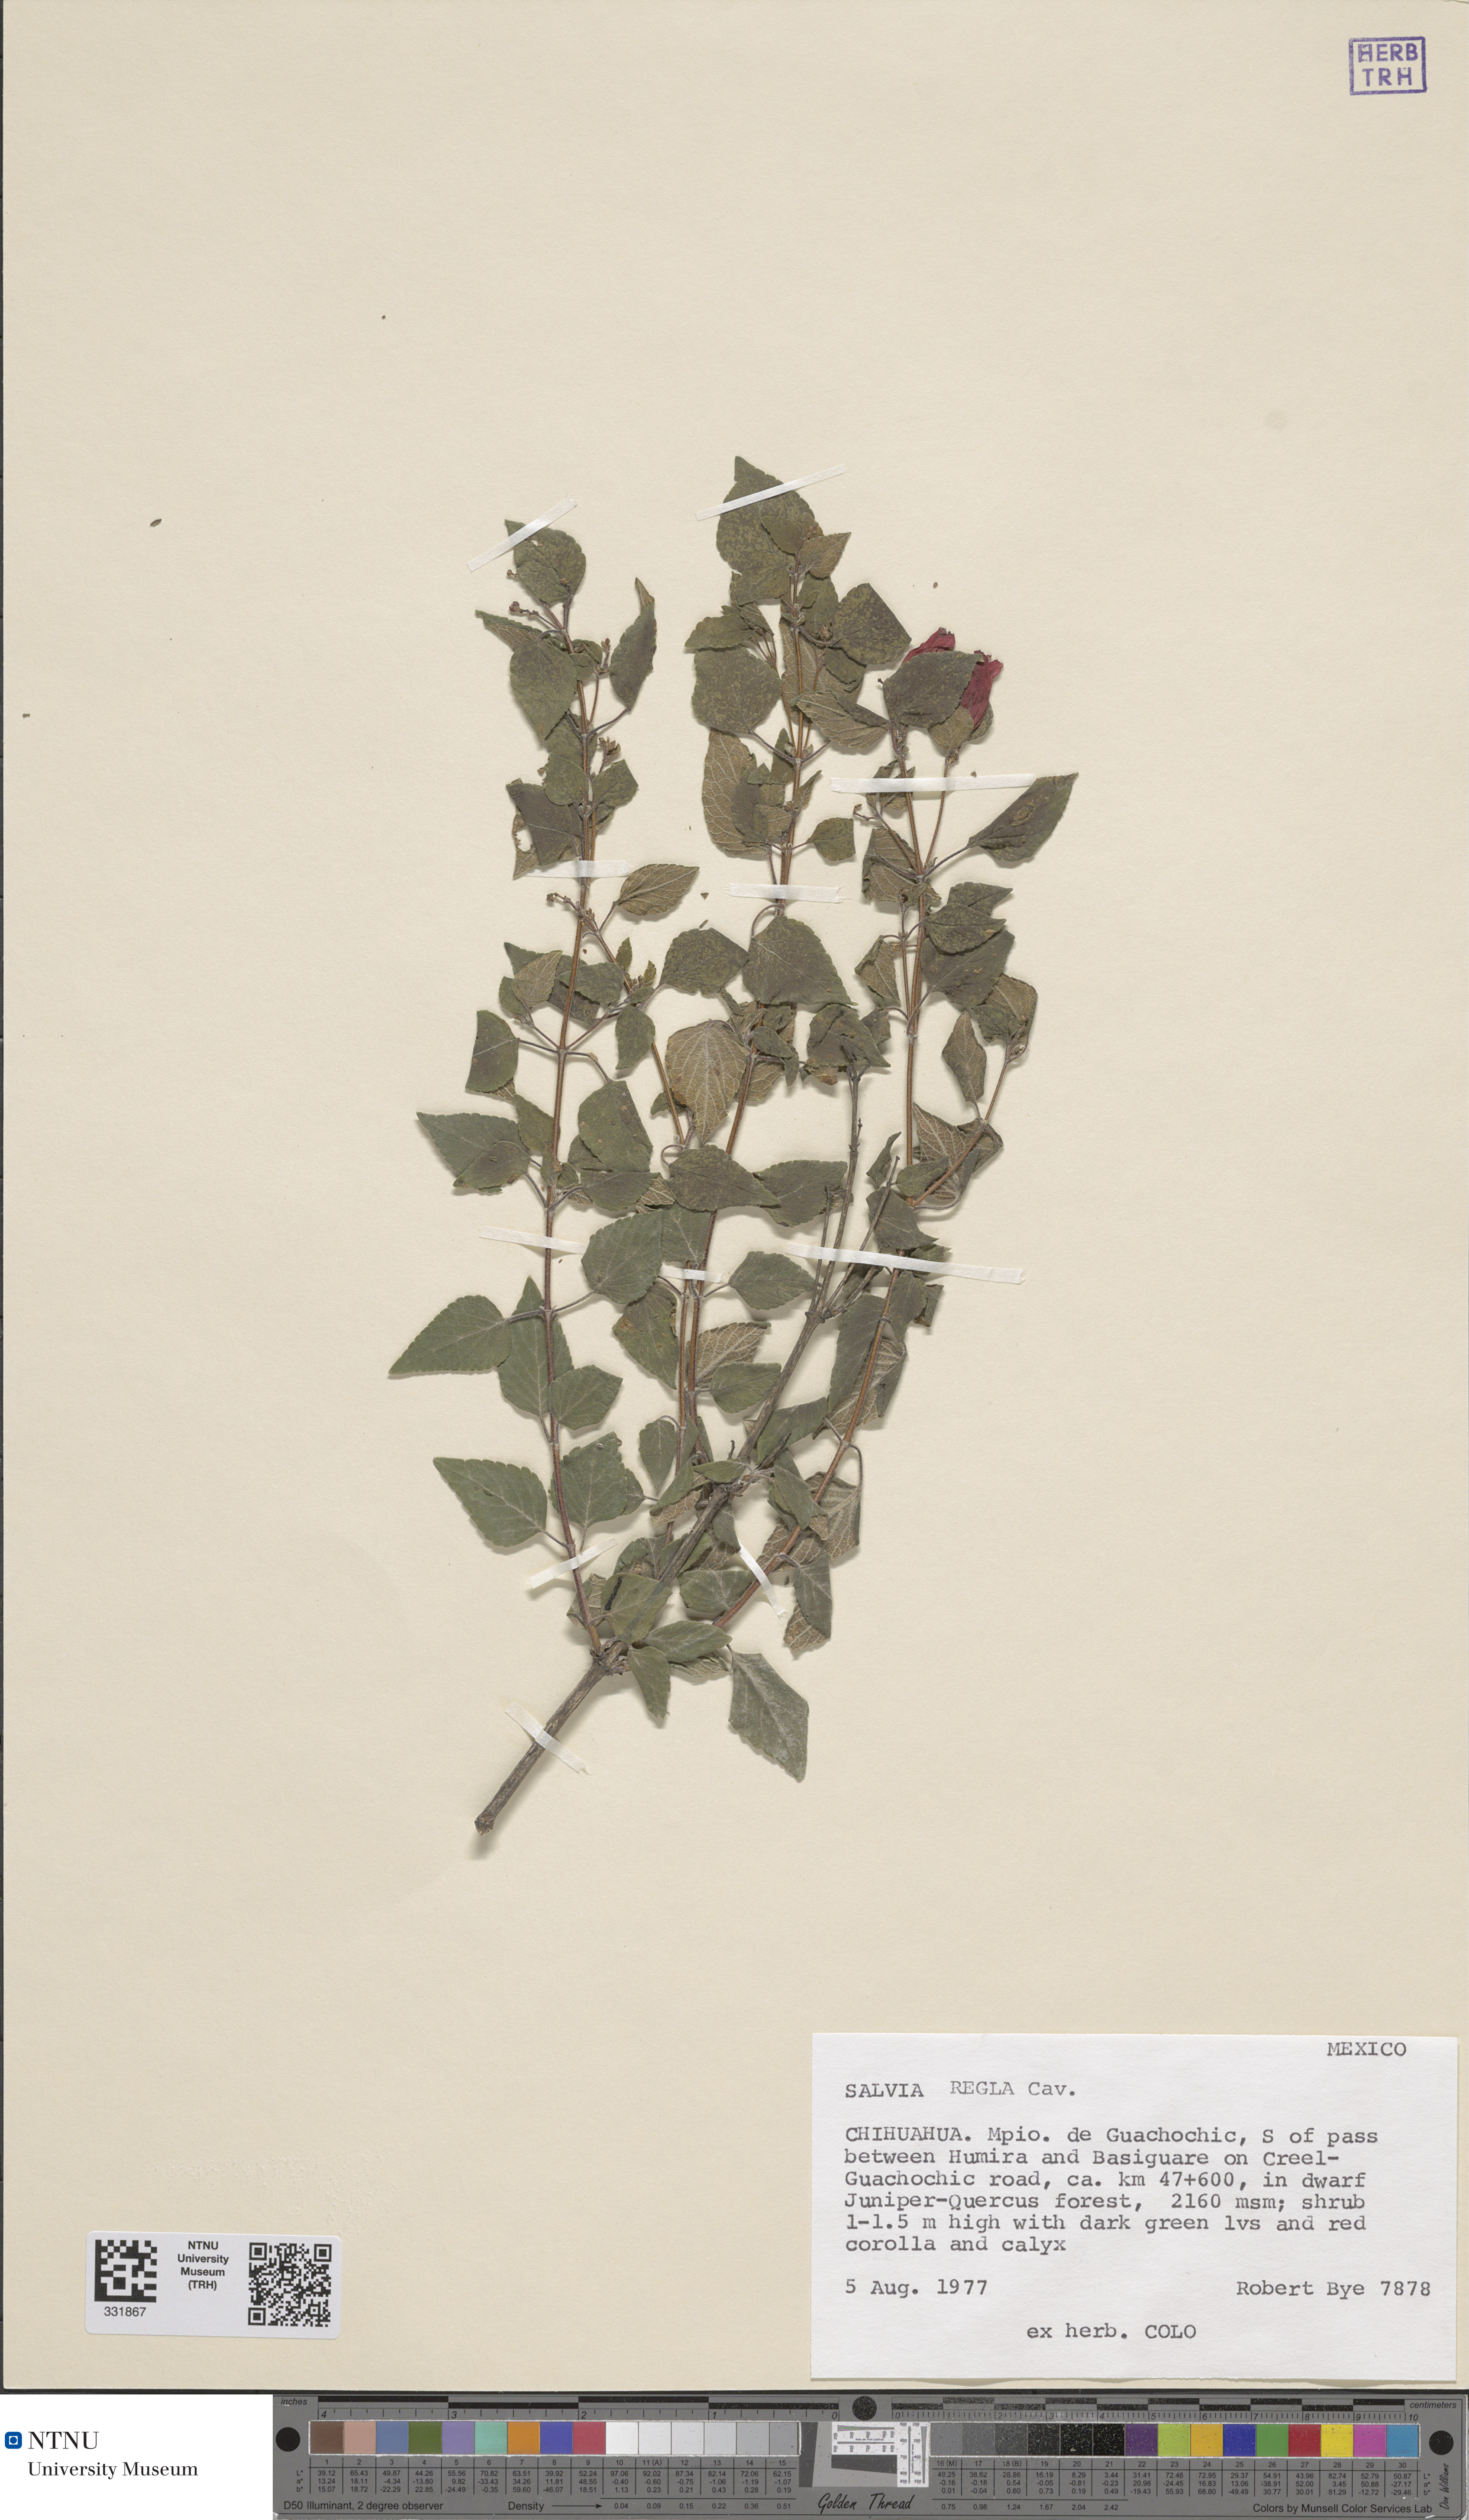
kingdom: Plantae
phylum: Tracheophyta
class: Magnoliopsida
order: Lamiales
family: Lamiaceae
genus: Salvia
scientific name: Salvia regla
